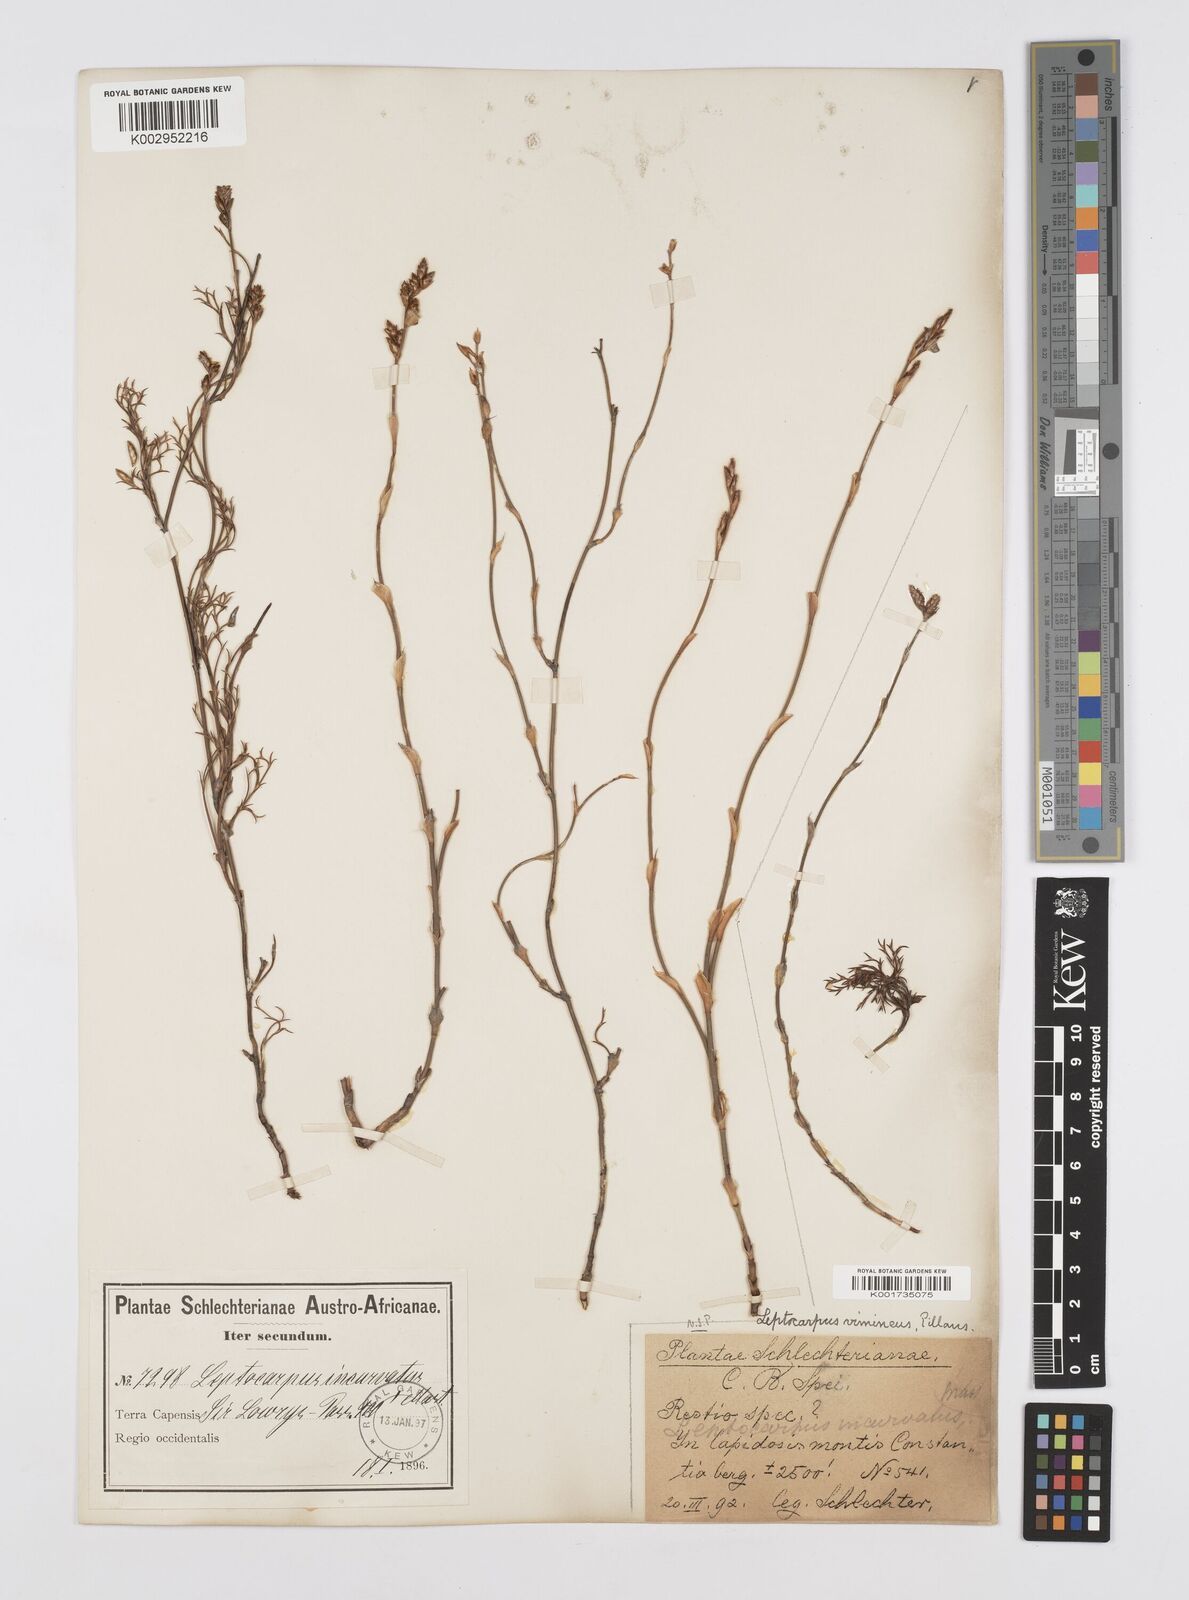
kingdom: Plantae
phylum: Tracheophyta
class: Liliopsida
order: Poales
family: Restionaceae
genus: Restio
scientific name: Restio vimineus
